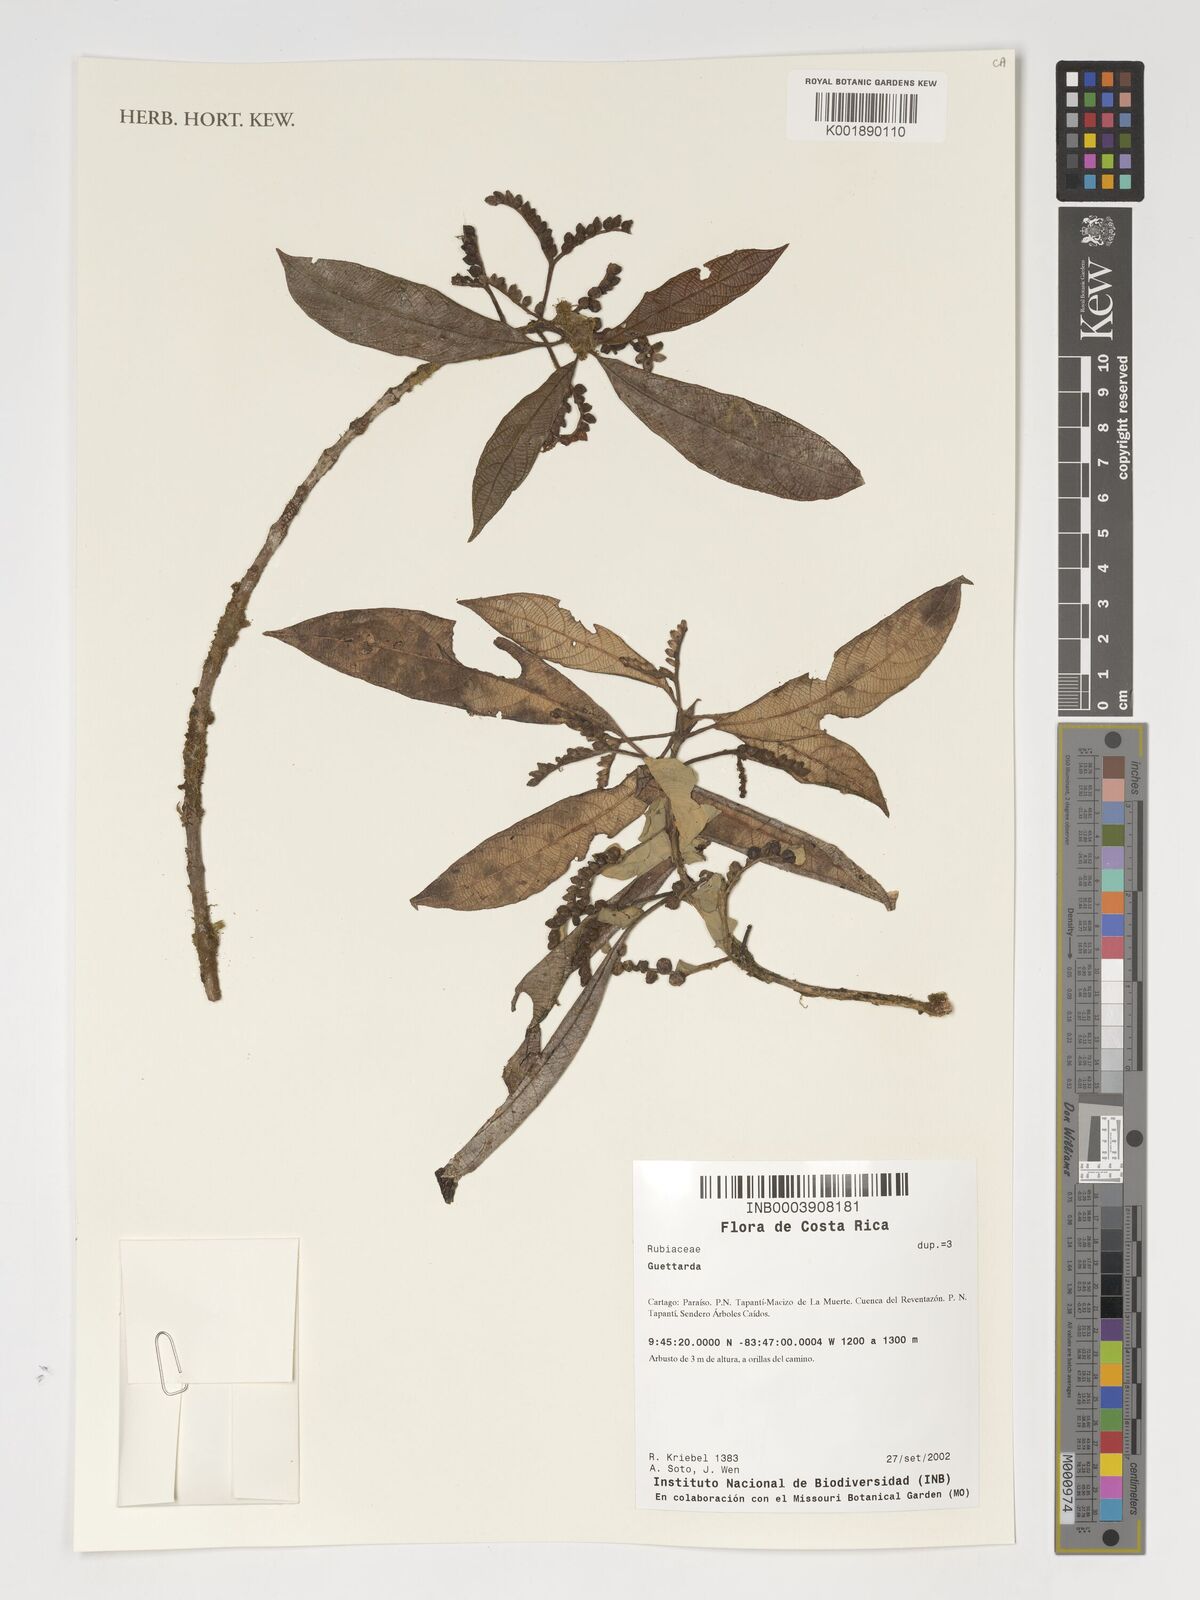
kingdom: Plantae
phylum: Tracheophyta
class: Magnoliopsida
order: Gentianales
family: Rubiaceae
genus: Guettarda
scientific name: Guettarda
